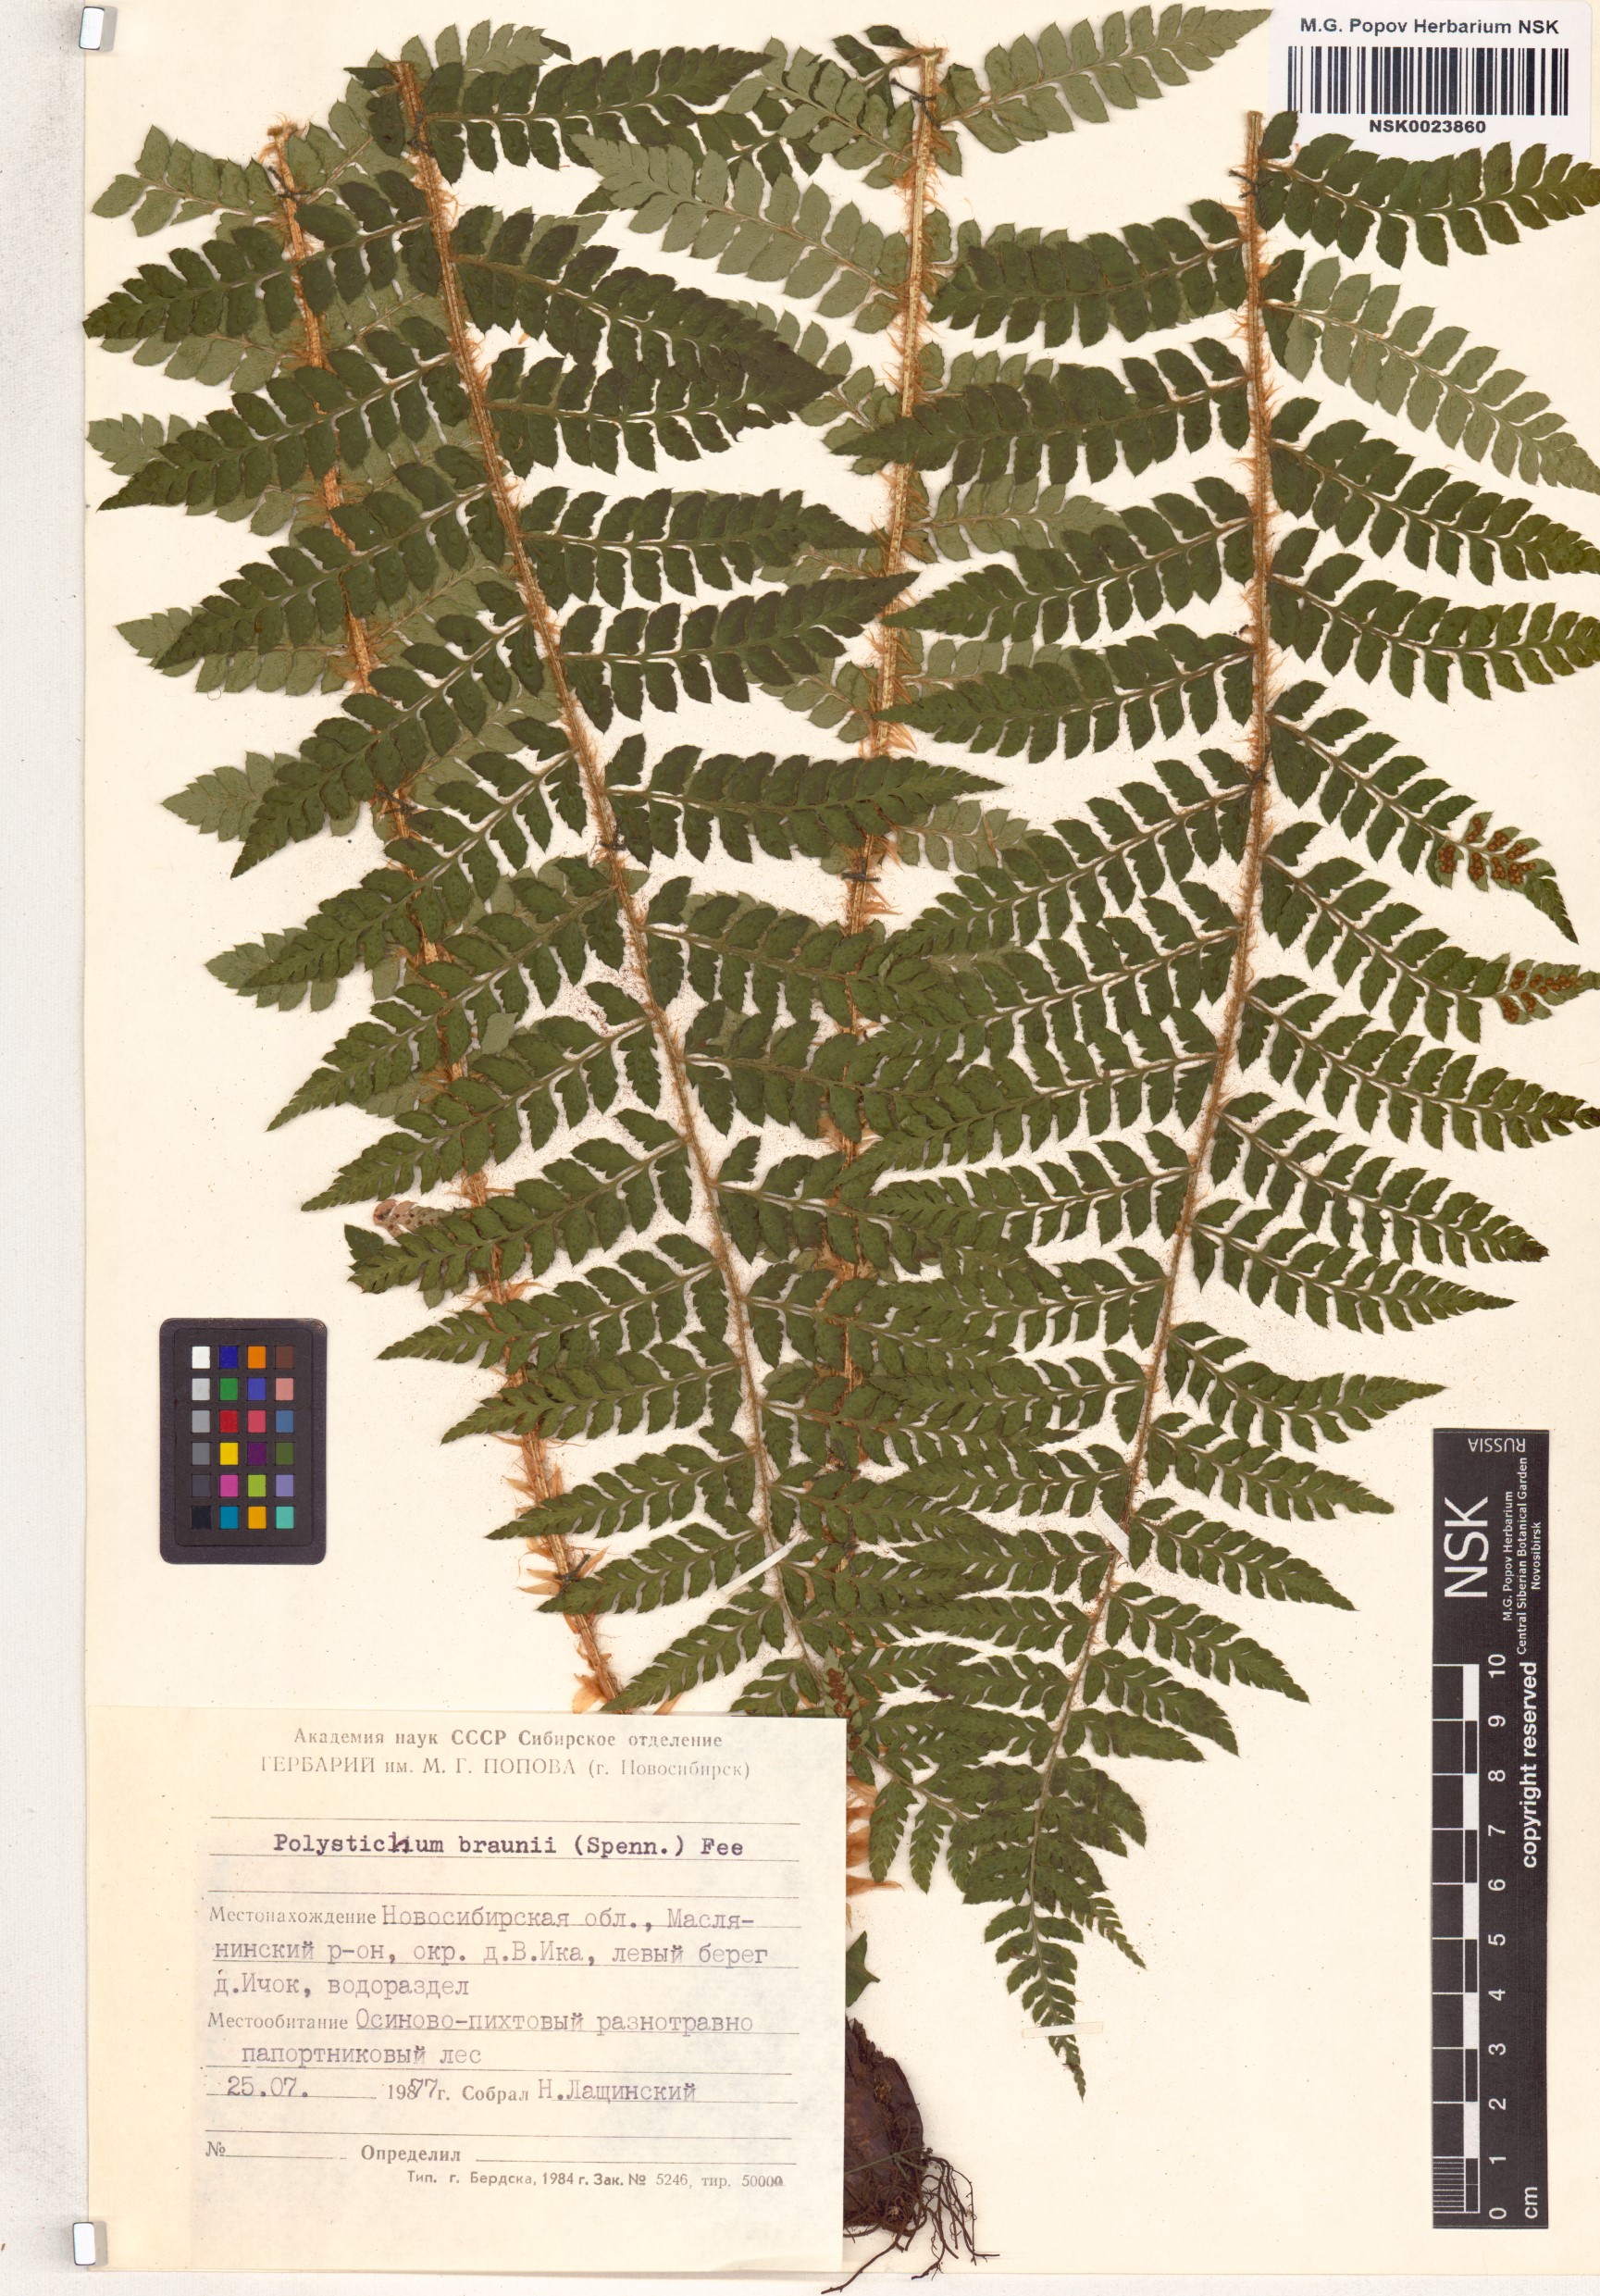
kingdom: Plantae
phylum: Tracheophyta
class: Polypodiopsida
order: Polypodiales
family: Dryopteridaceae
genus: Polystichum
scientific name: Polystichum braunii
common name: Braun's holly fern
